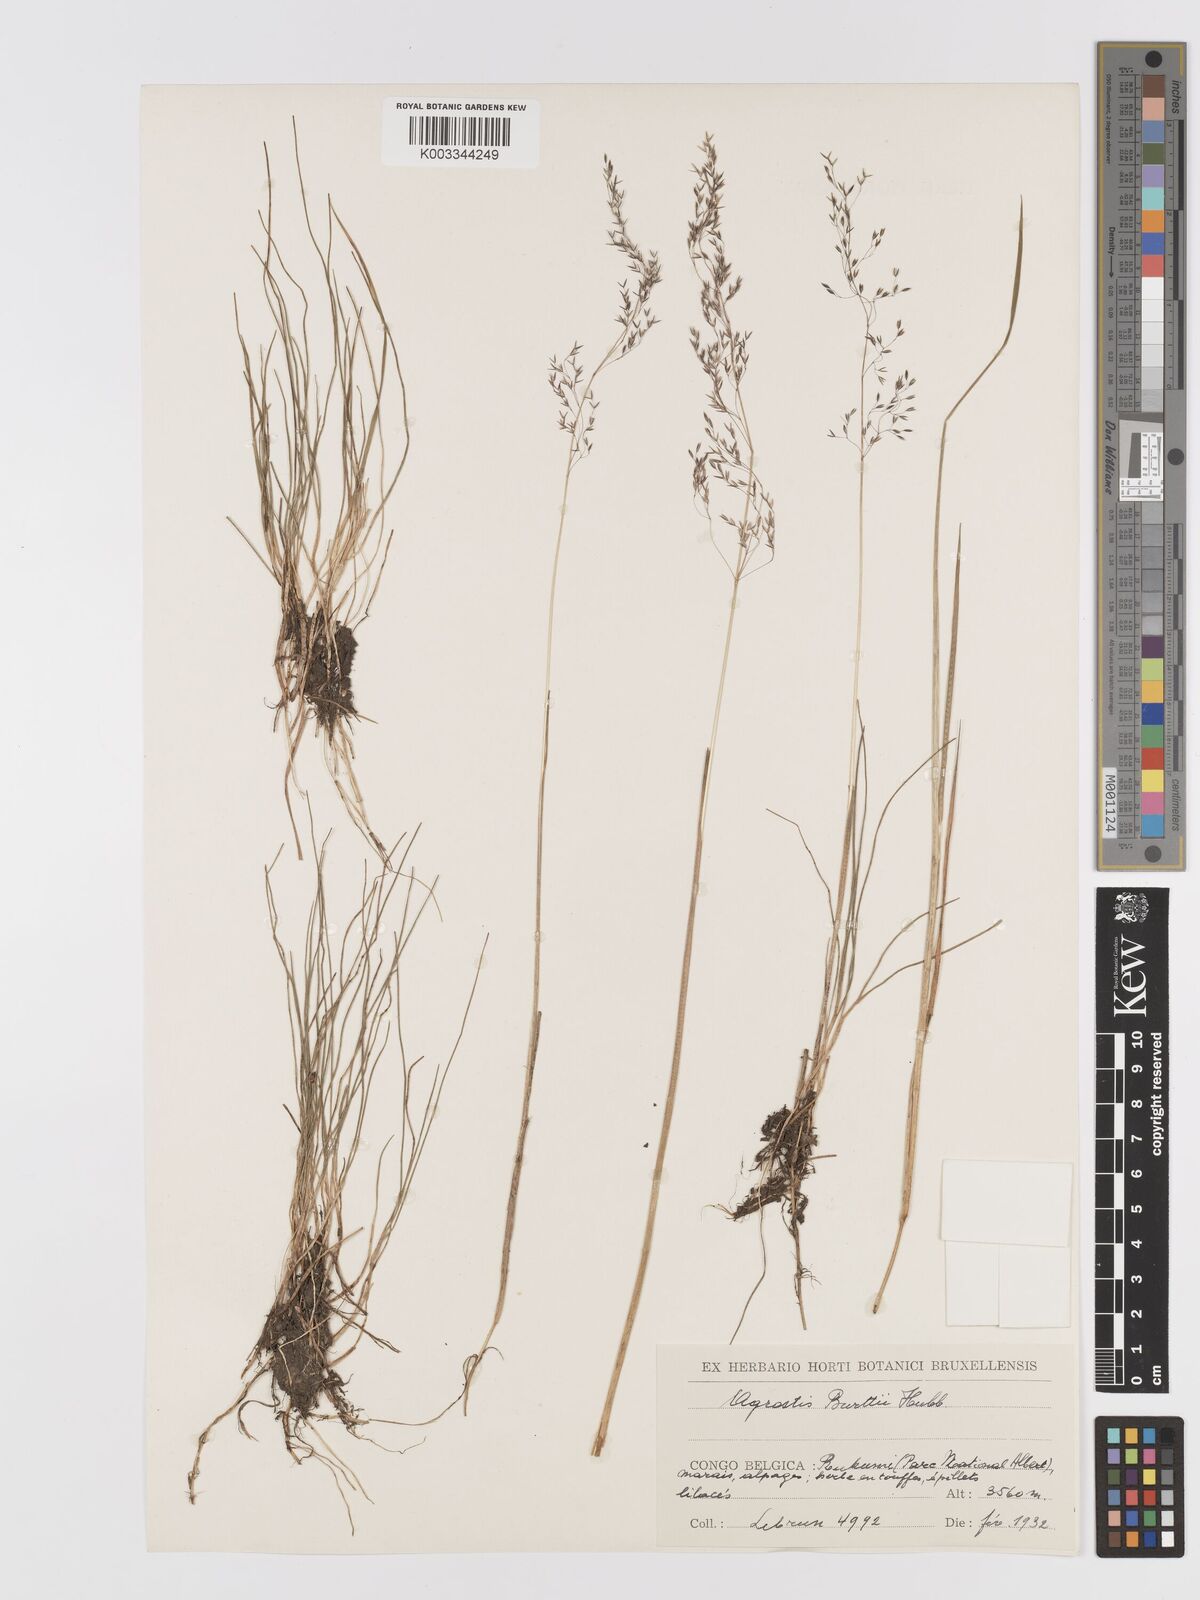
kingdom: Plantae
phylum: Tracheophyta
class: Liliopsida
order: Poales
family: Poaceae
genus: Agrostis
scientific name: Agrostis kilimandscharica
